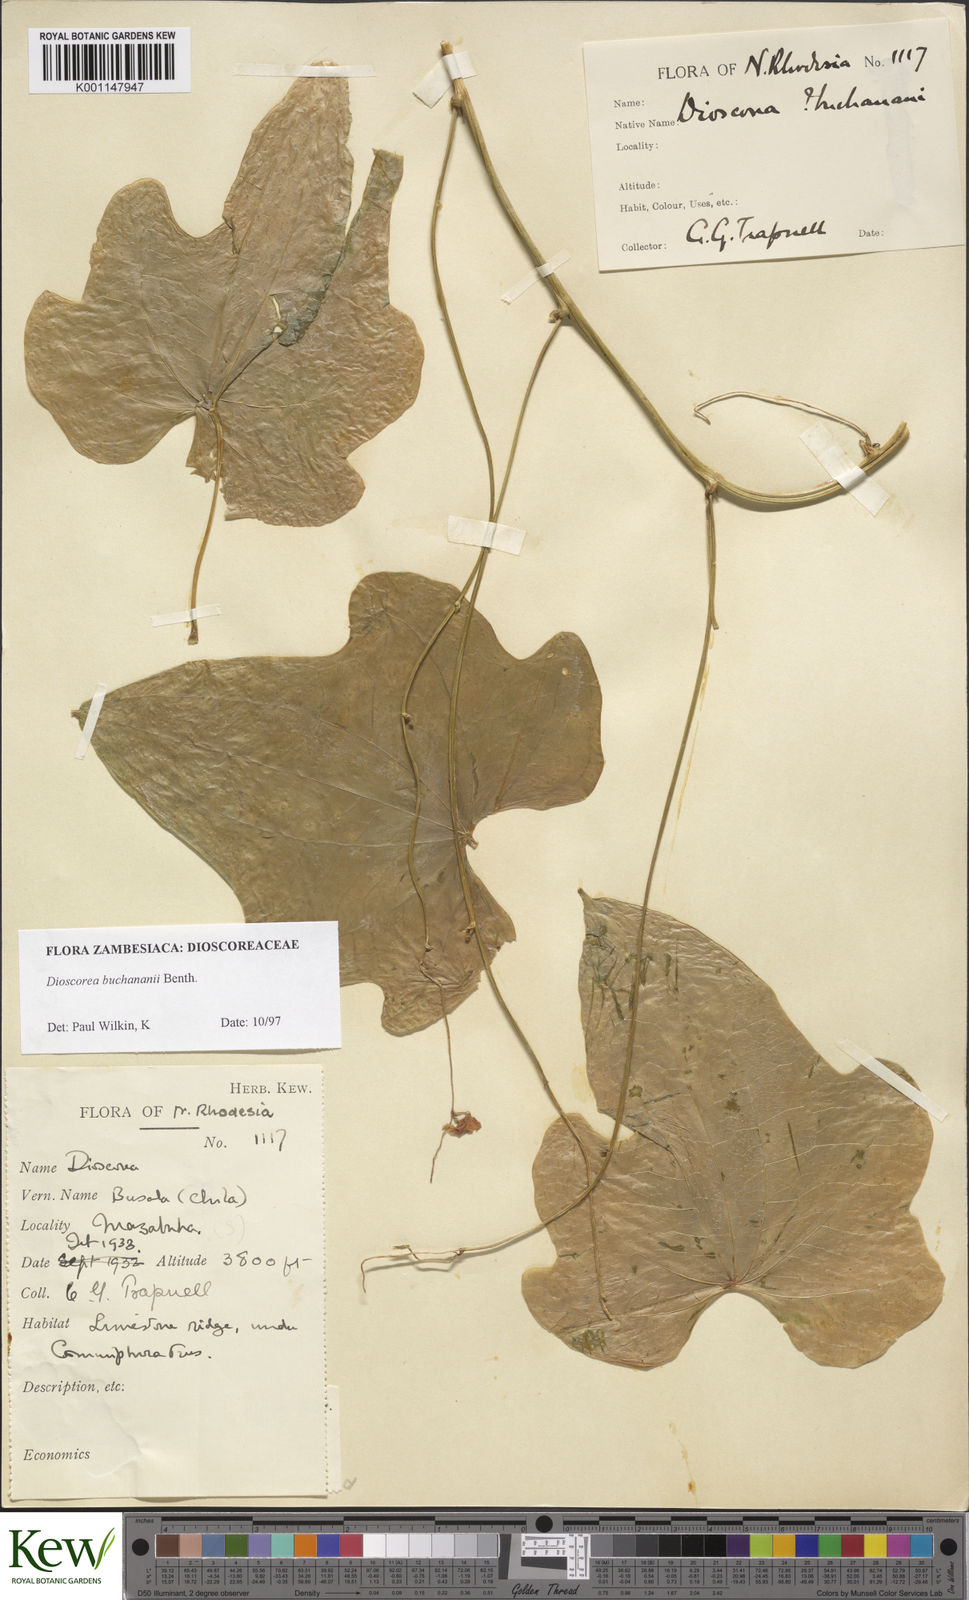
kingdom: Plantae
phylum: Tracheophyta
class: Liliopsida
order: Dioscoreales
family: Dioscoreaceae
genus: Dioscorea
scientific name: Dioscorea buchananii
